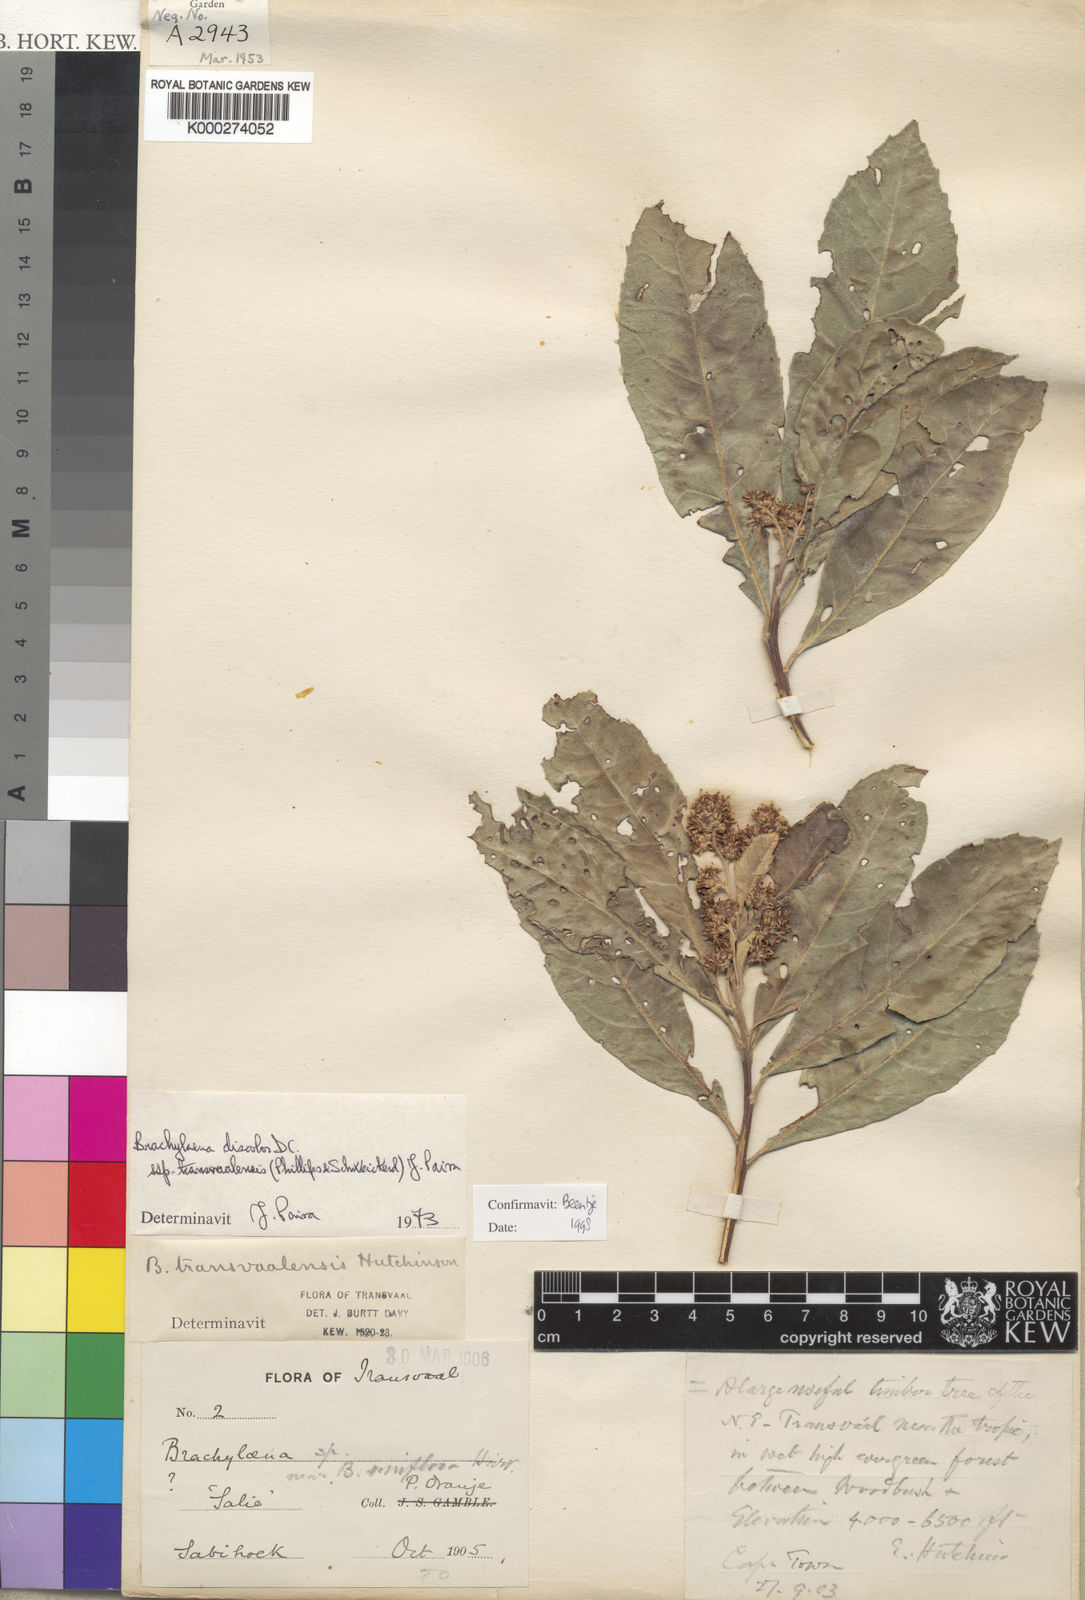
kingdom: Plantae
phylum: Tracheophyta
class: Magnoliopsida
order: Asterales
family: Asteraceae
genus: Brachylaena
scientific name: Brachylaena discolor
